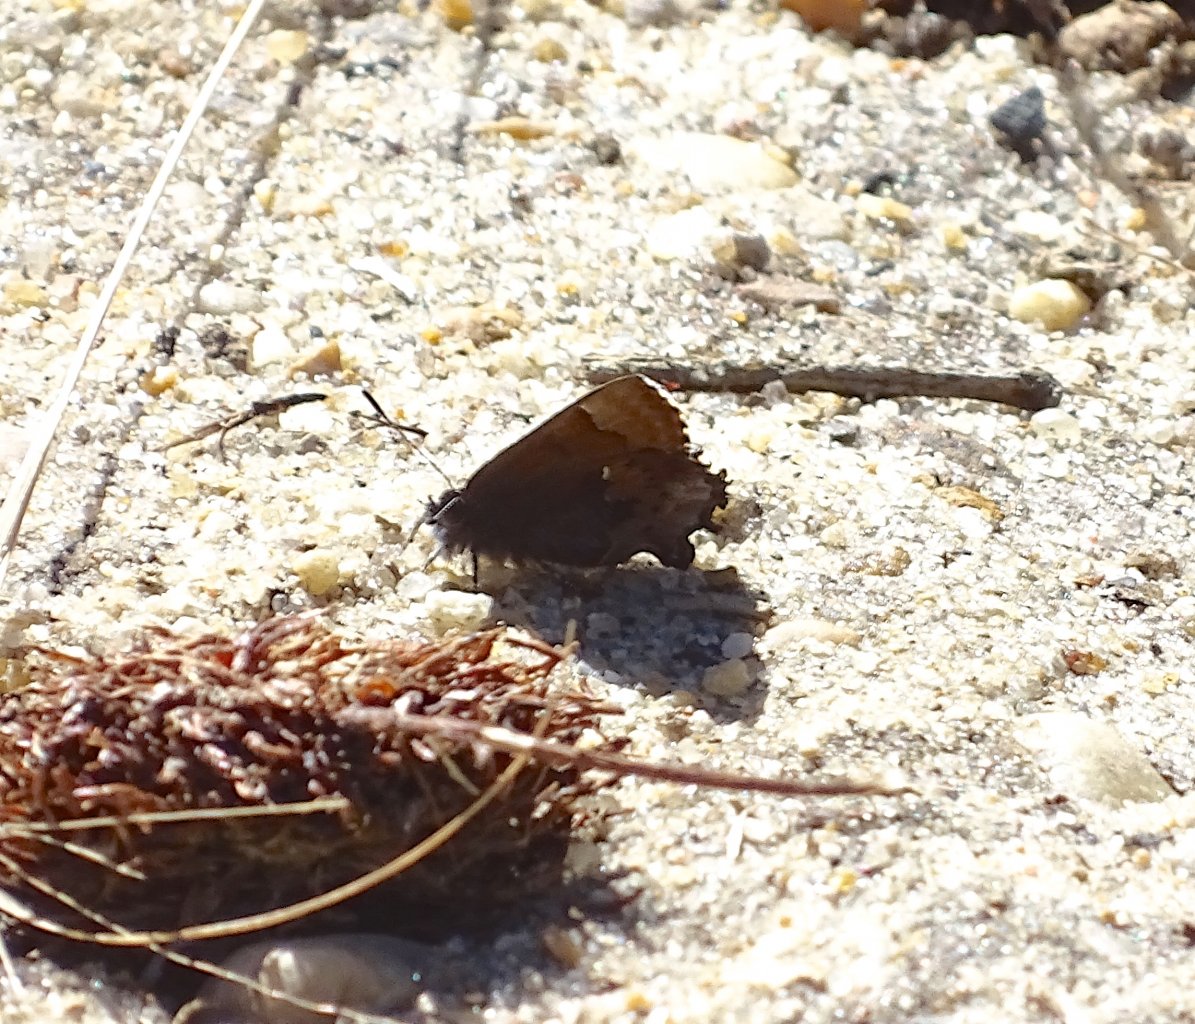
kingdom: Animalia
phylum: Arthropoda
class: Insecta
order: Lepidoptera
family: Lycaenidae
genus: Incisalia
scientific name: Incisalia henrici
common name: Henry's Elfin
